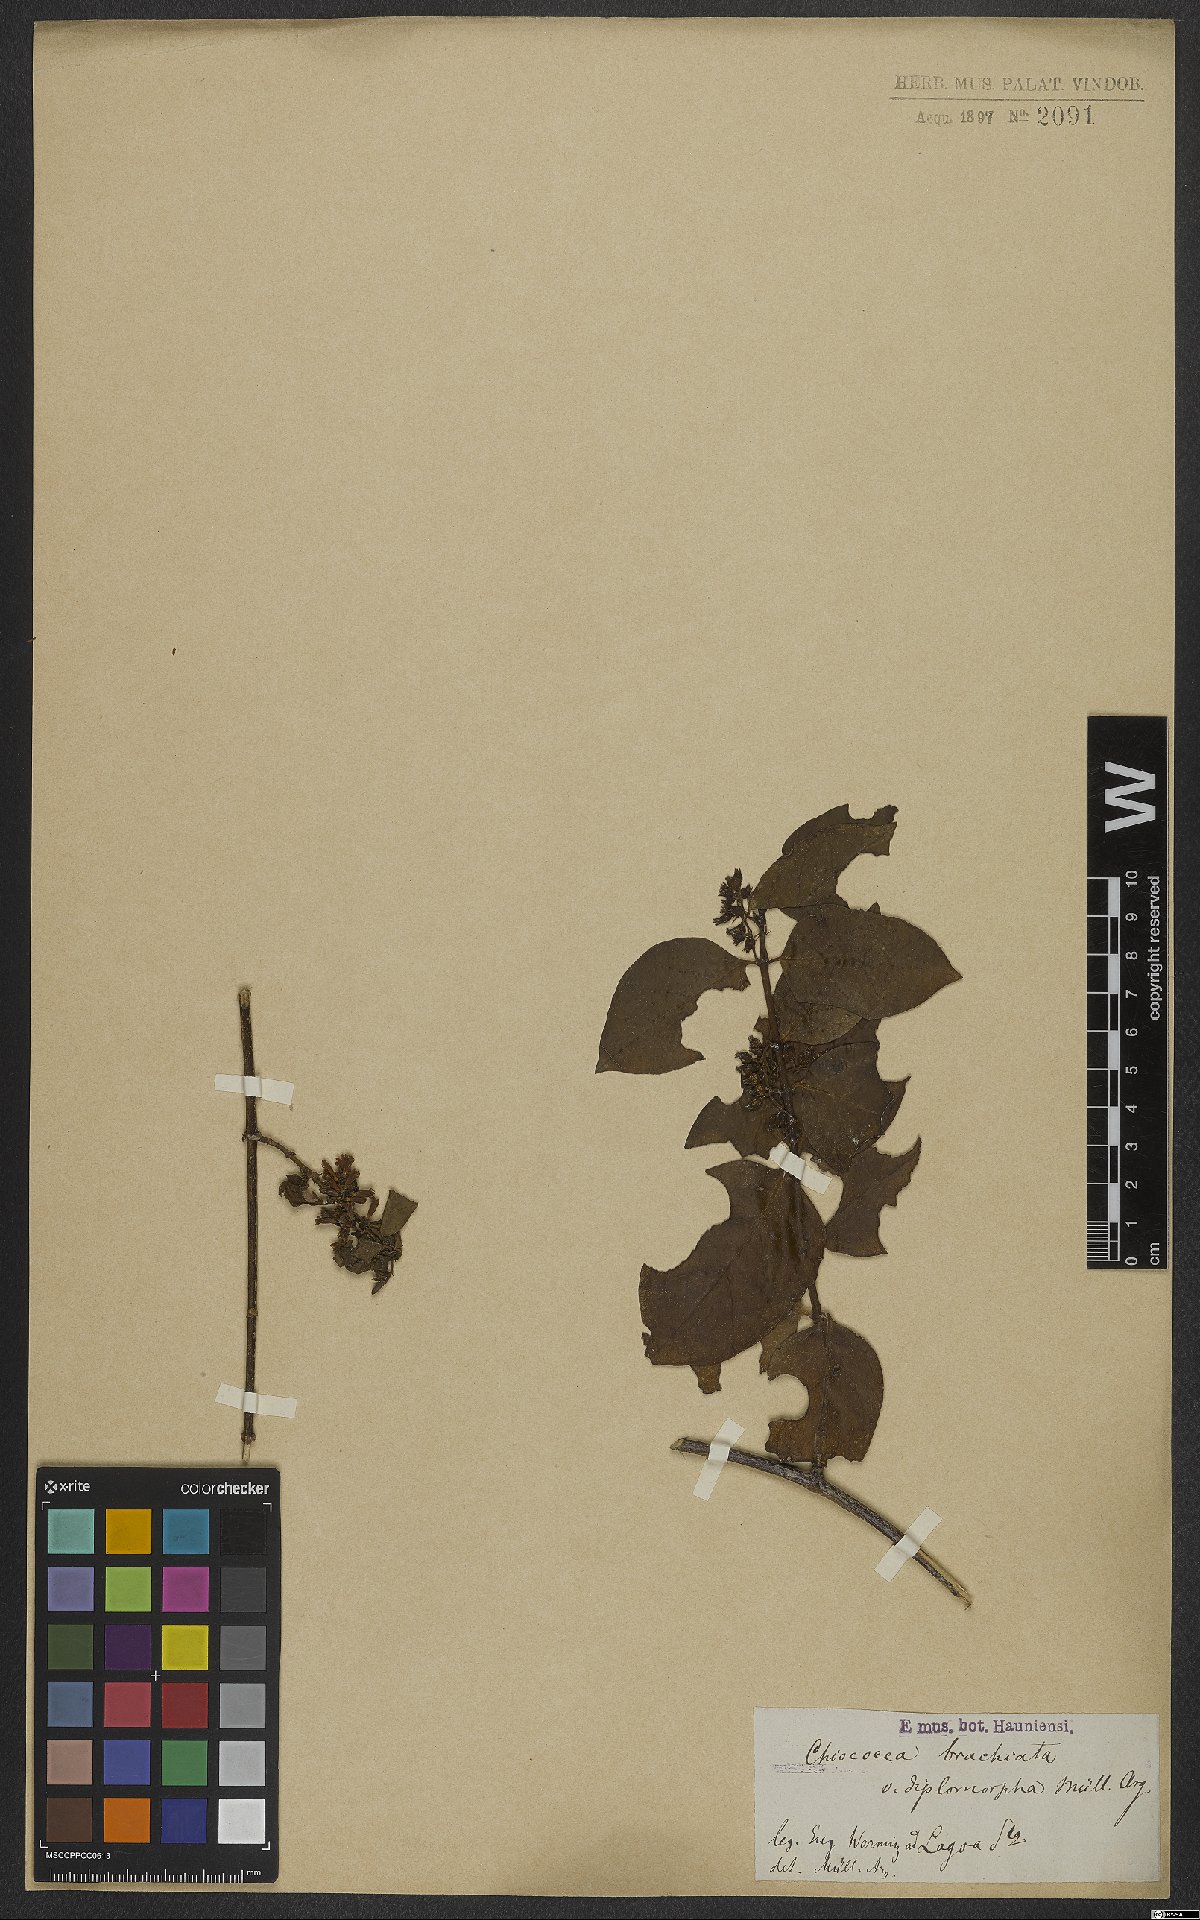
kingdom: Plantae
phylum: Tracheophyta
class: Magnoliopsida
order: Gentianales
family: Rubiaceae
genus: Chiococca
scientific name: Chiococca alba
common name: Snowberry
